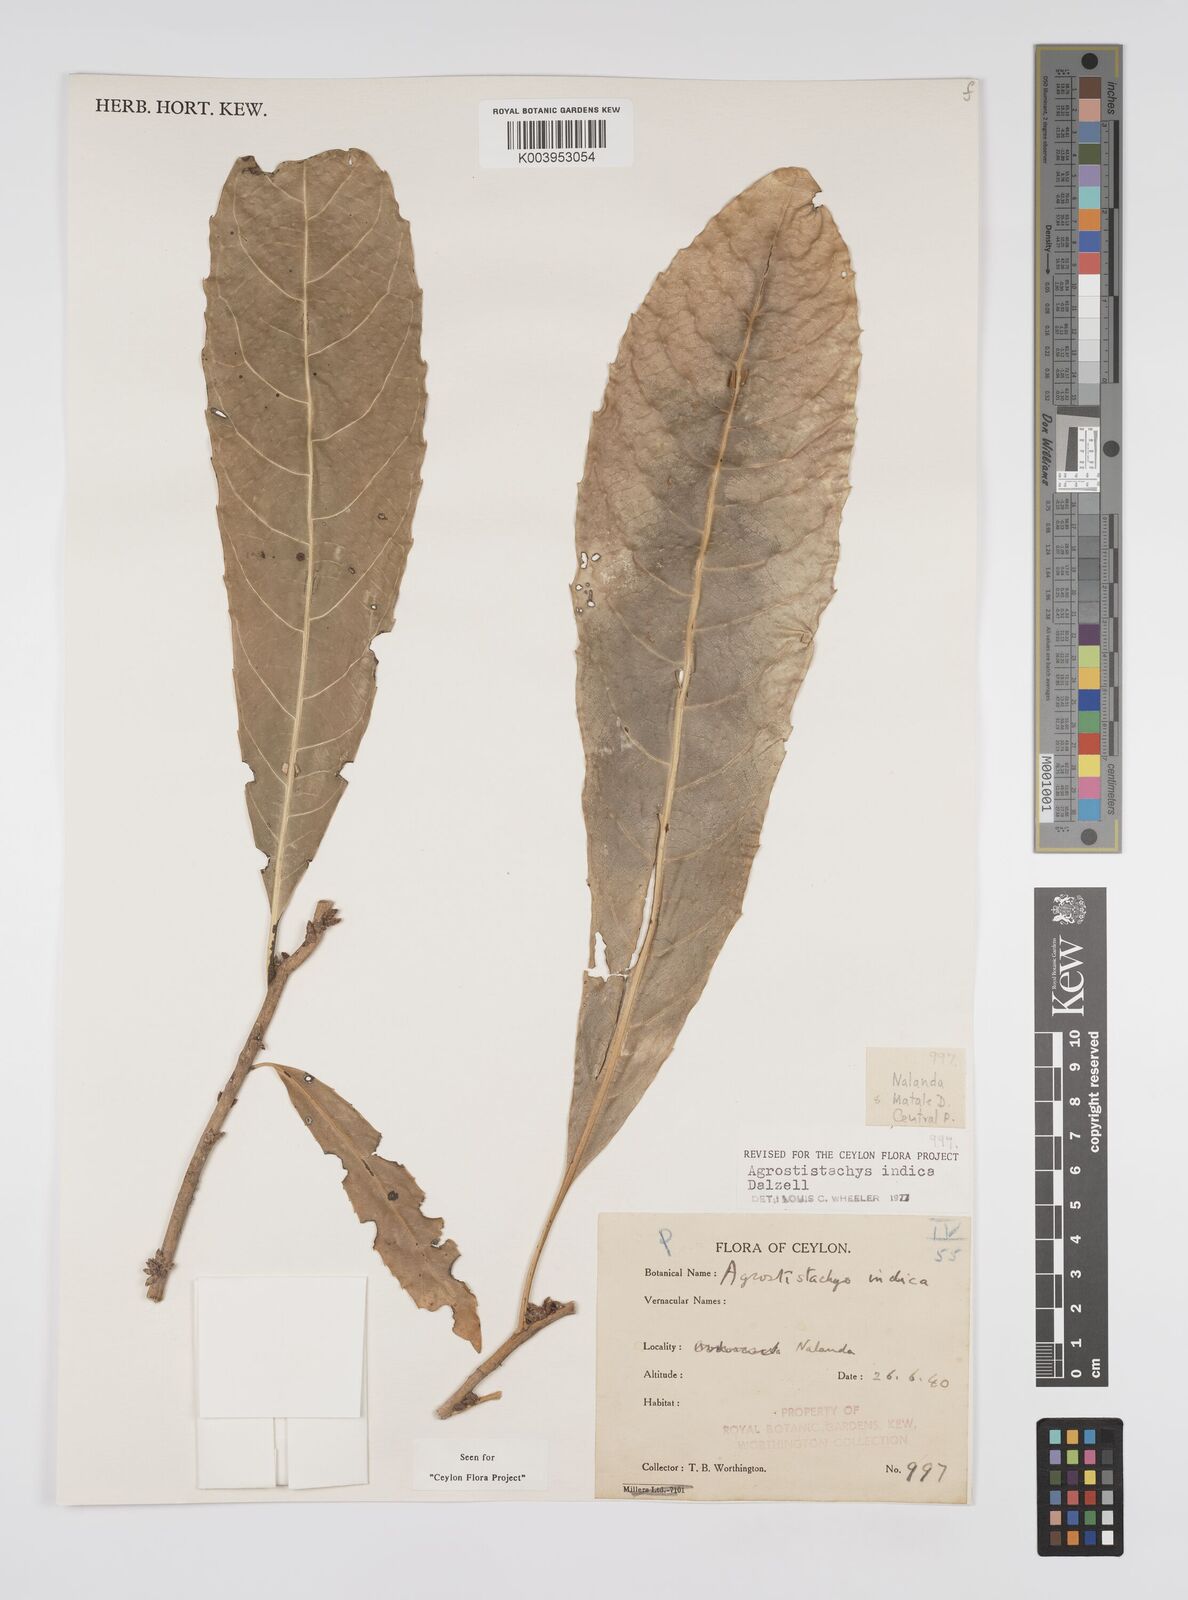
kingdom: Plantae
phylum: Tracheophyta
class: Magnoliopsida
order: Malpighiales
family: Euphorbiaceae
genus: Agrostistachys
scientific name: Agrostistachys indica
